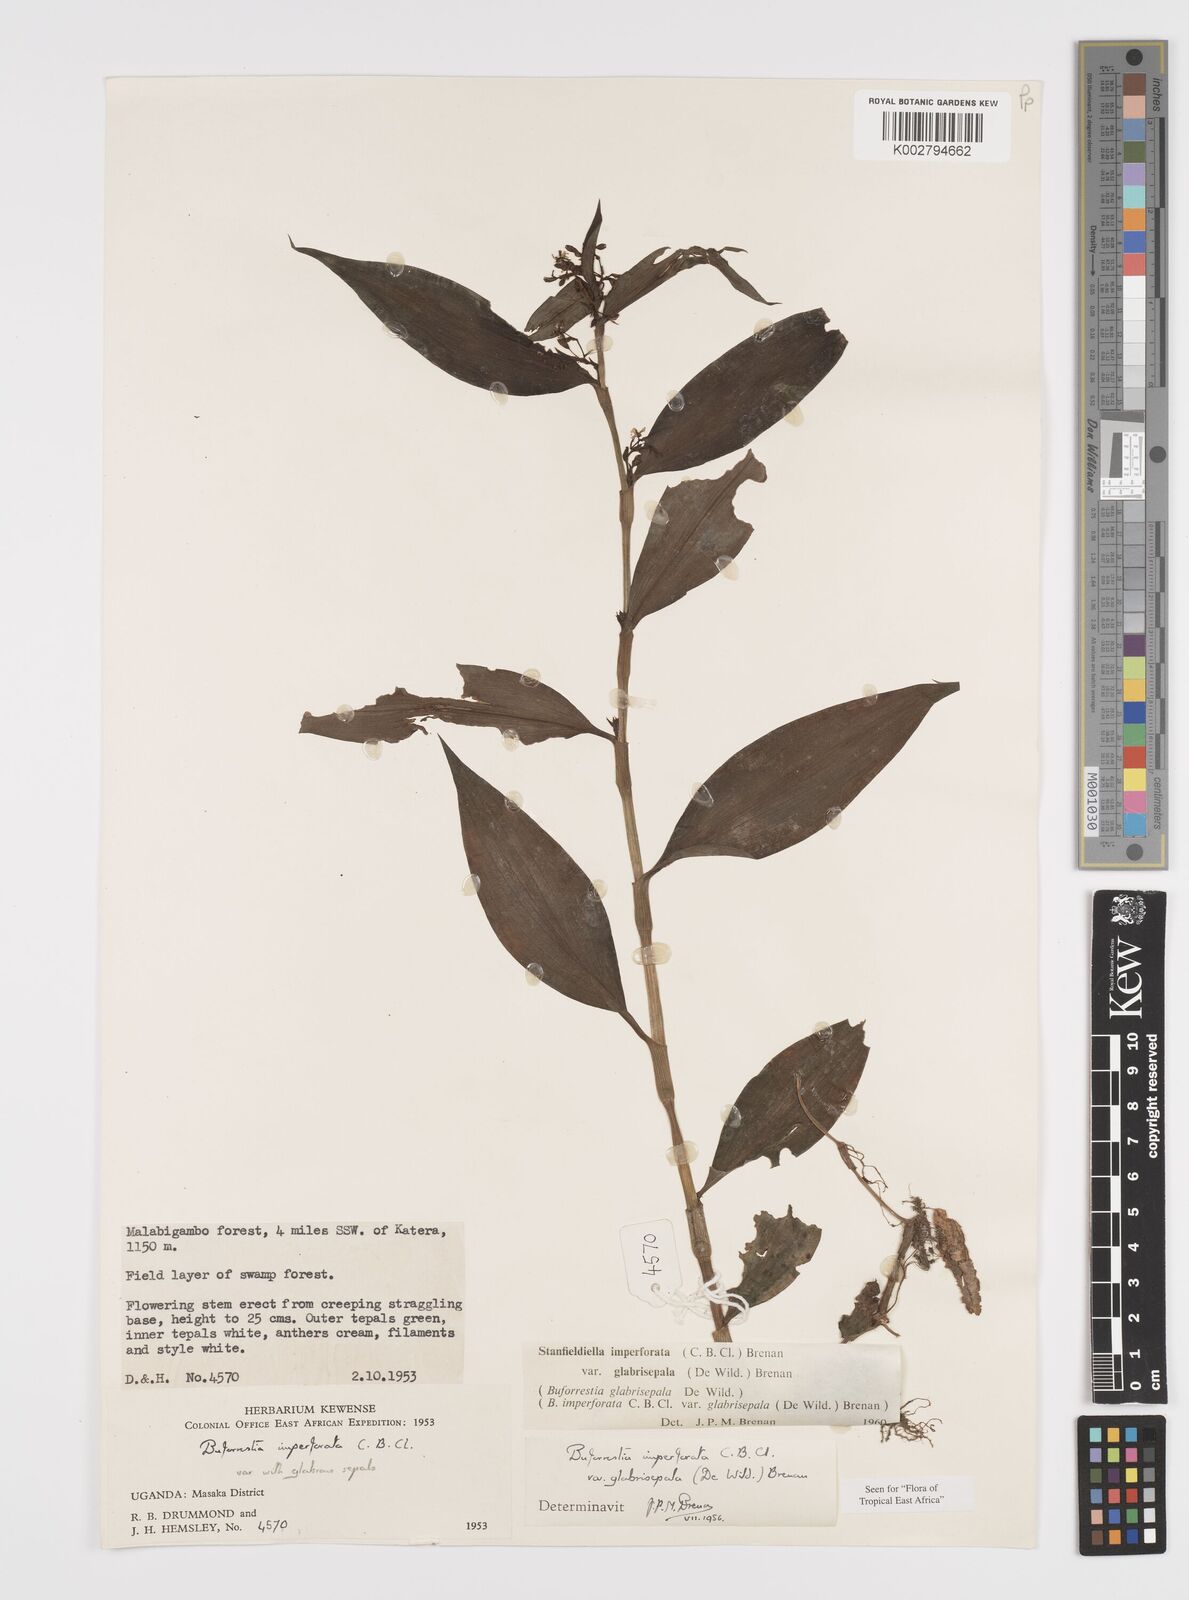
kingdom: Plantae
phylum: Tracheophyta
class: Liliopsida
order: Commelinales
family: Commelinaceae
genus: Stanfieldiella
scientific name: Stanfieldiella imperforata
